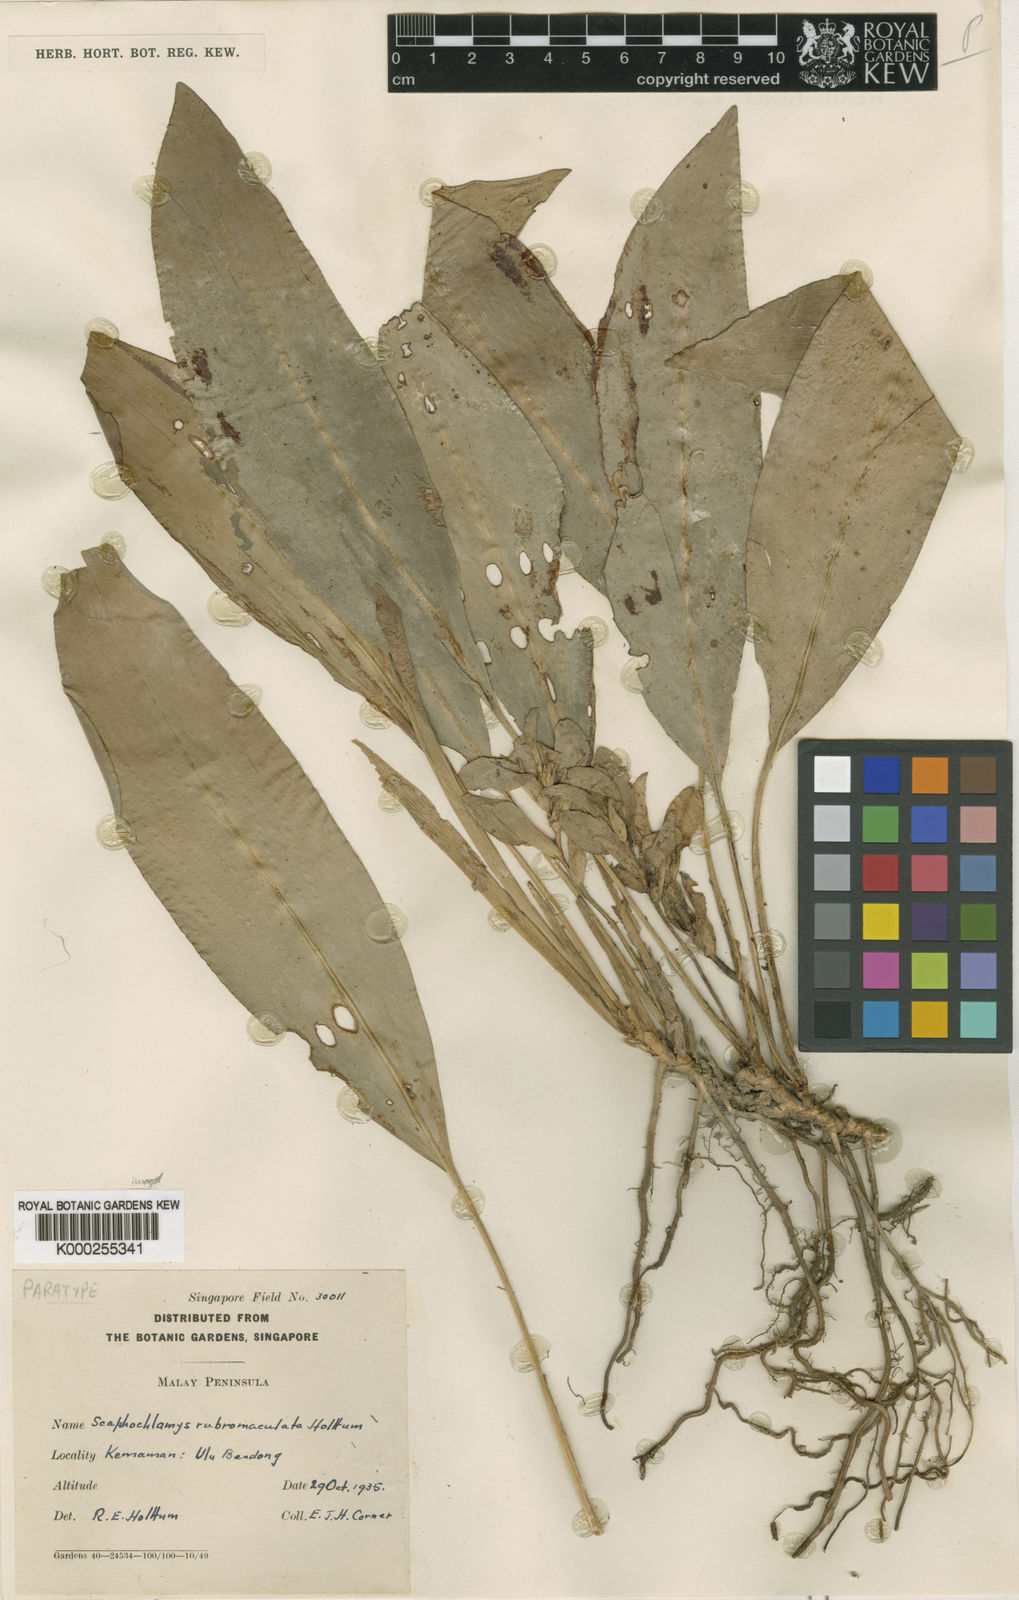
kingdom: Plantae
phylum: Tracheophyta
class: Liliopsida
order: Zingiberales
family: Zingiberaceae
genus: Scaphochlamys
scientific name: Scaphochlamys
